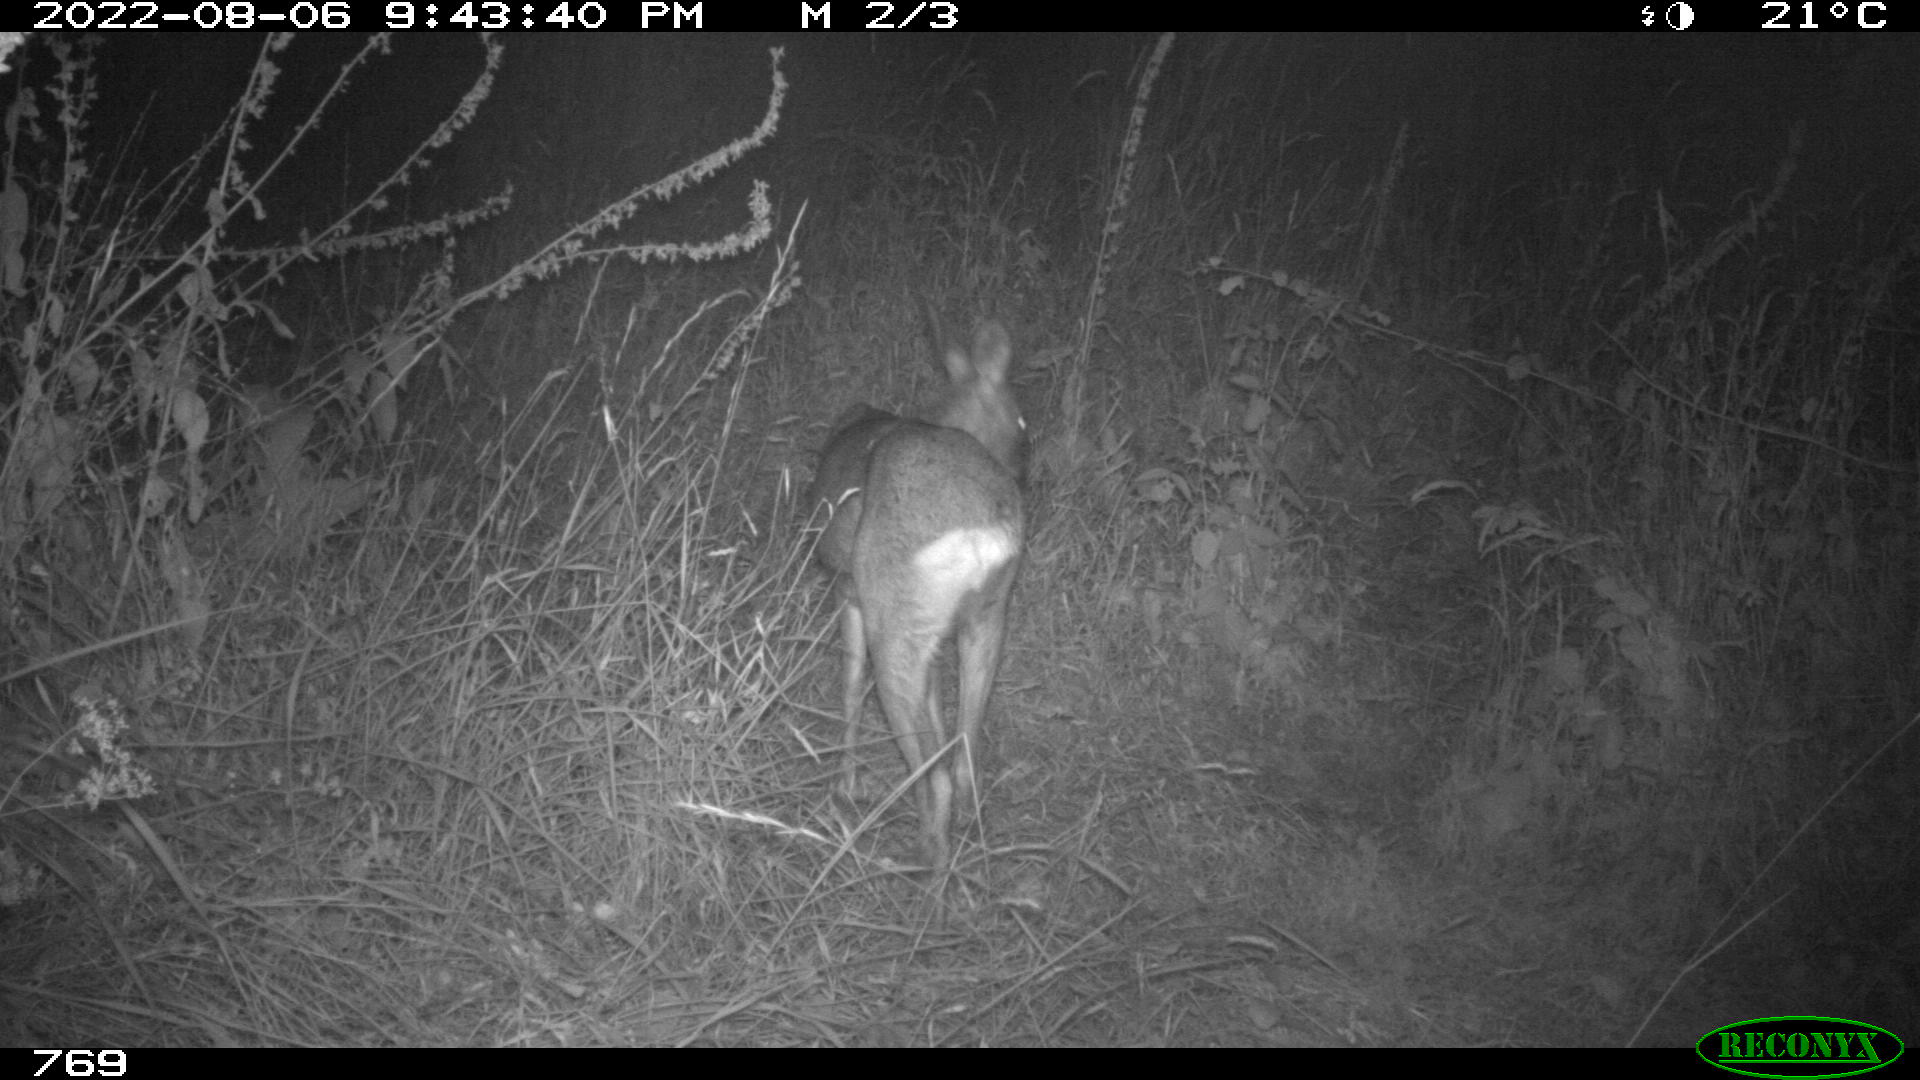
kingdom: Animalia
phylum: Chordata
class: Mammalia
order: Artiodactyla
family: Cervidae
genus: Capreolus
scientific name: Capreolus capreolus
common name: Western roe deer
